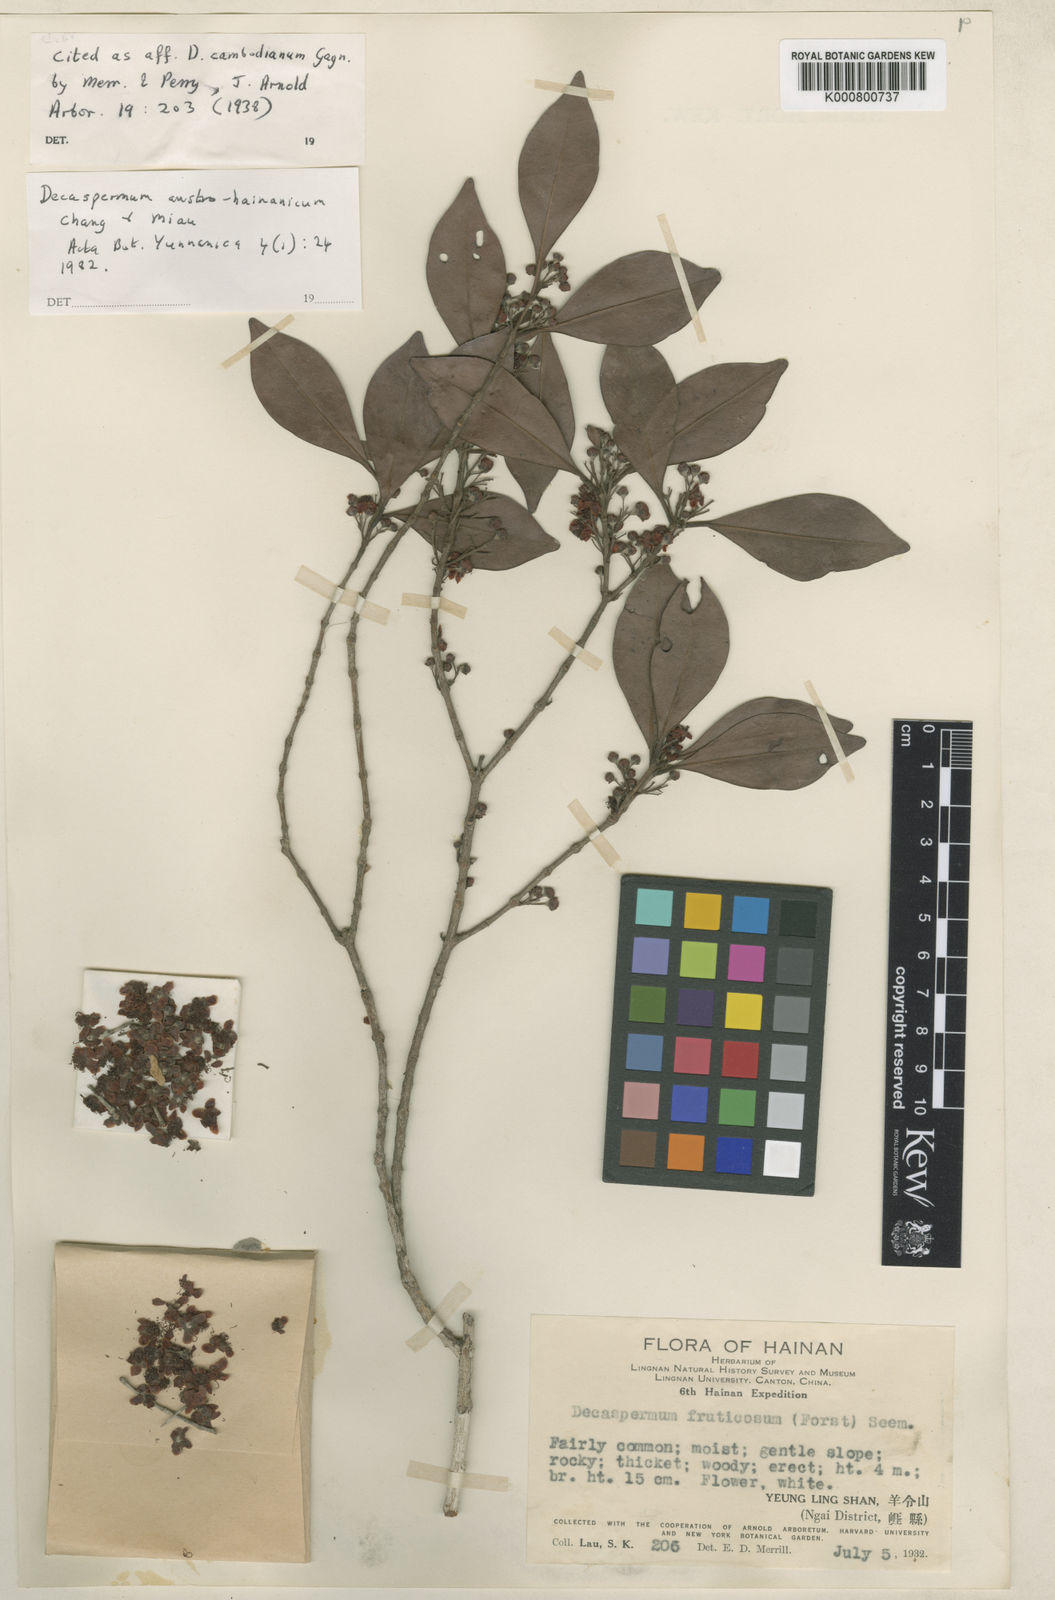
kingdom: Plantae
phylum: Tracheophyta
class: Magnoliopsida
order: Myrtales
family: Myrtaceae
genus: Decaspermum
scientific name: Decaspermum montanum
